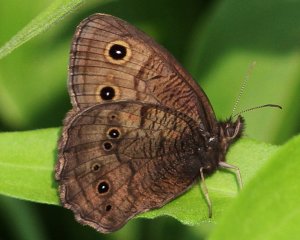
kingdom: Animalia
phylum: Arthropoda
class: Insecta
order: Lepidoptera
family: Nymphalidae
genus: Cercyonis
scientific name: Cercyonis pegala
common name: Common Wood-Nymph
